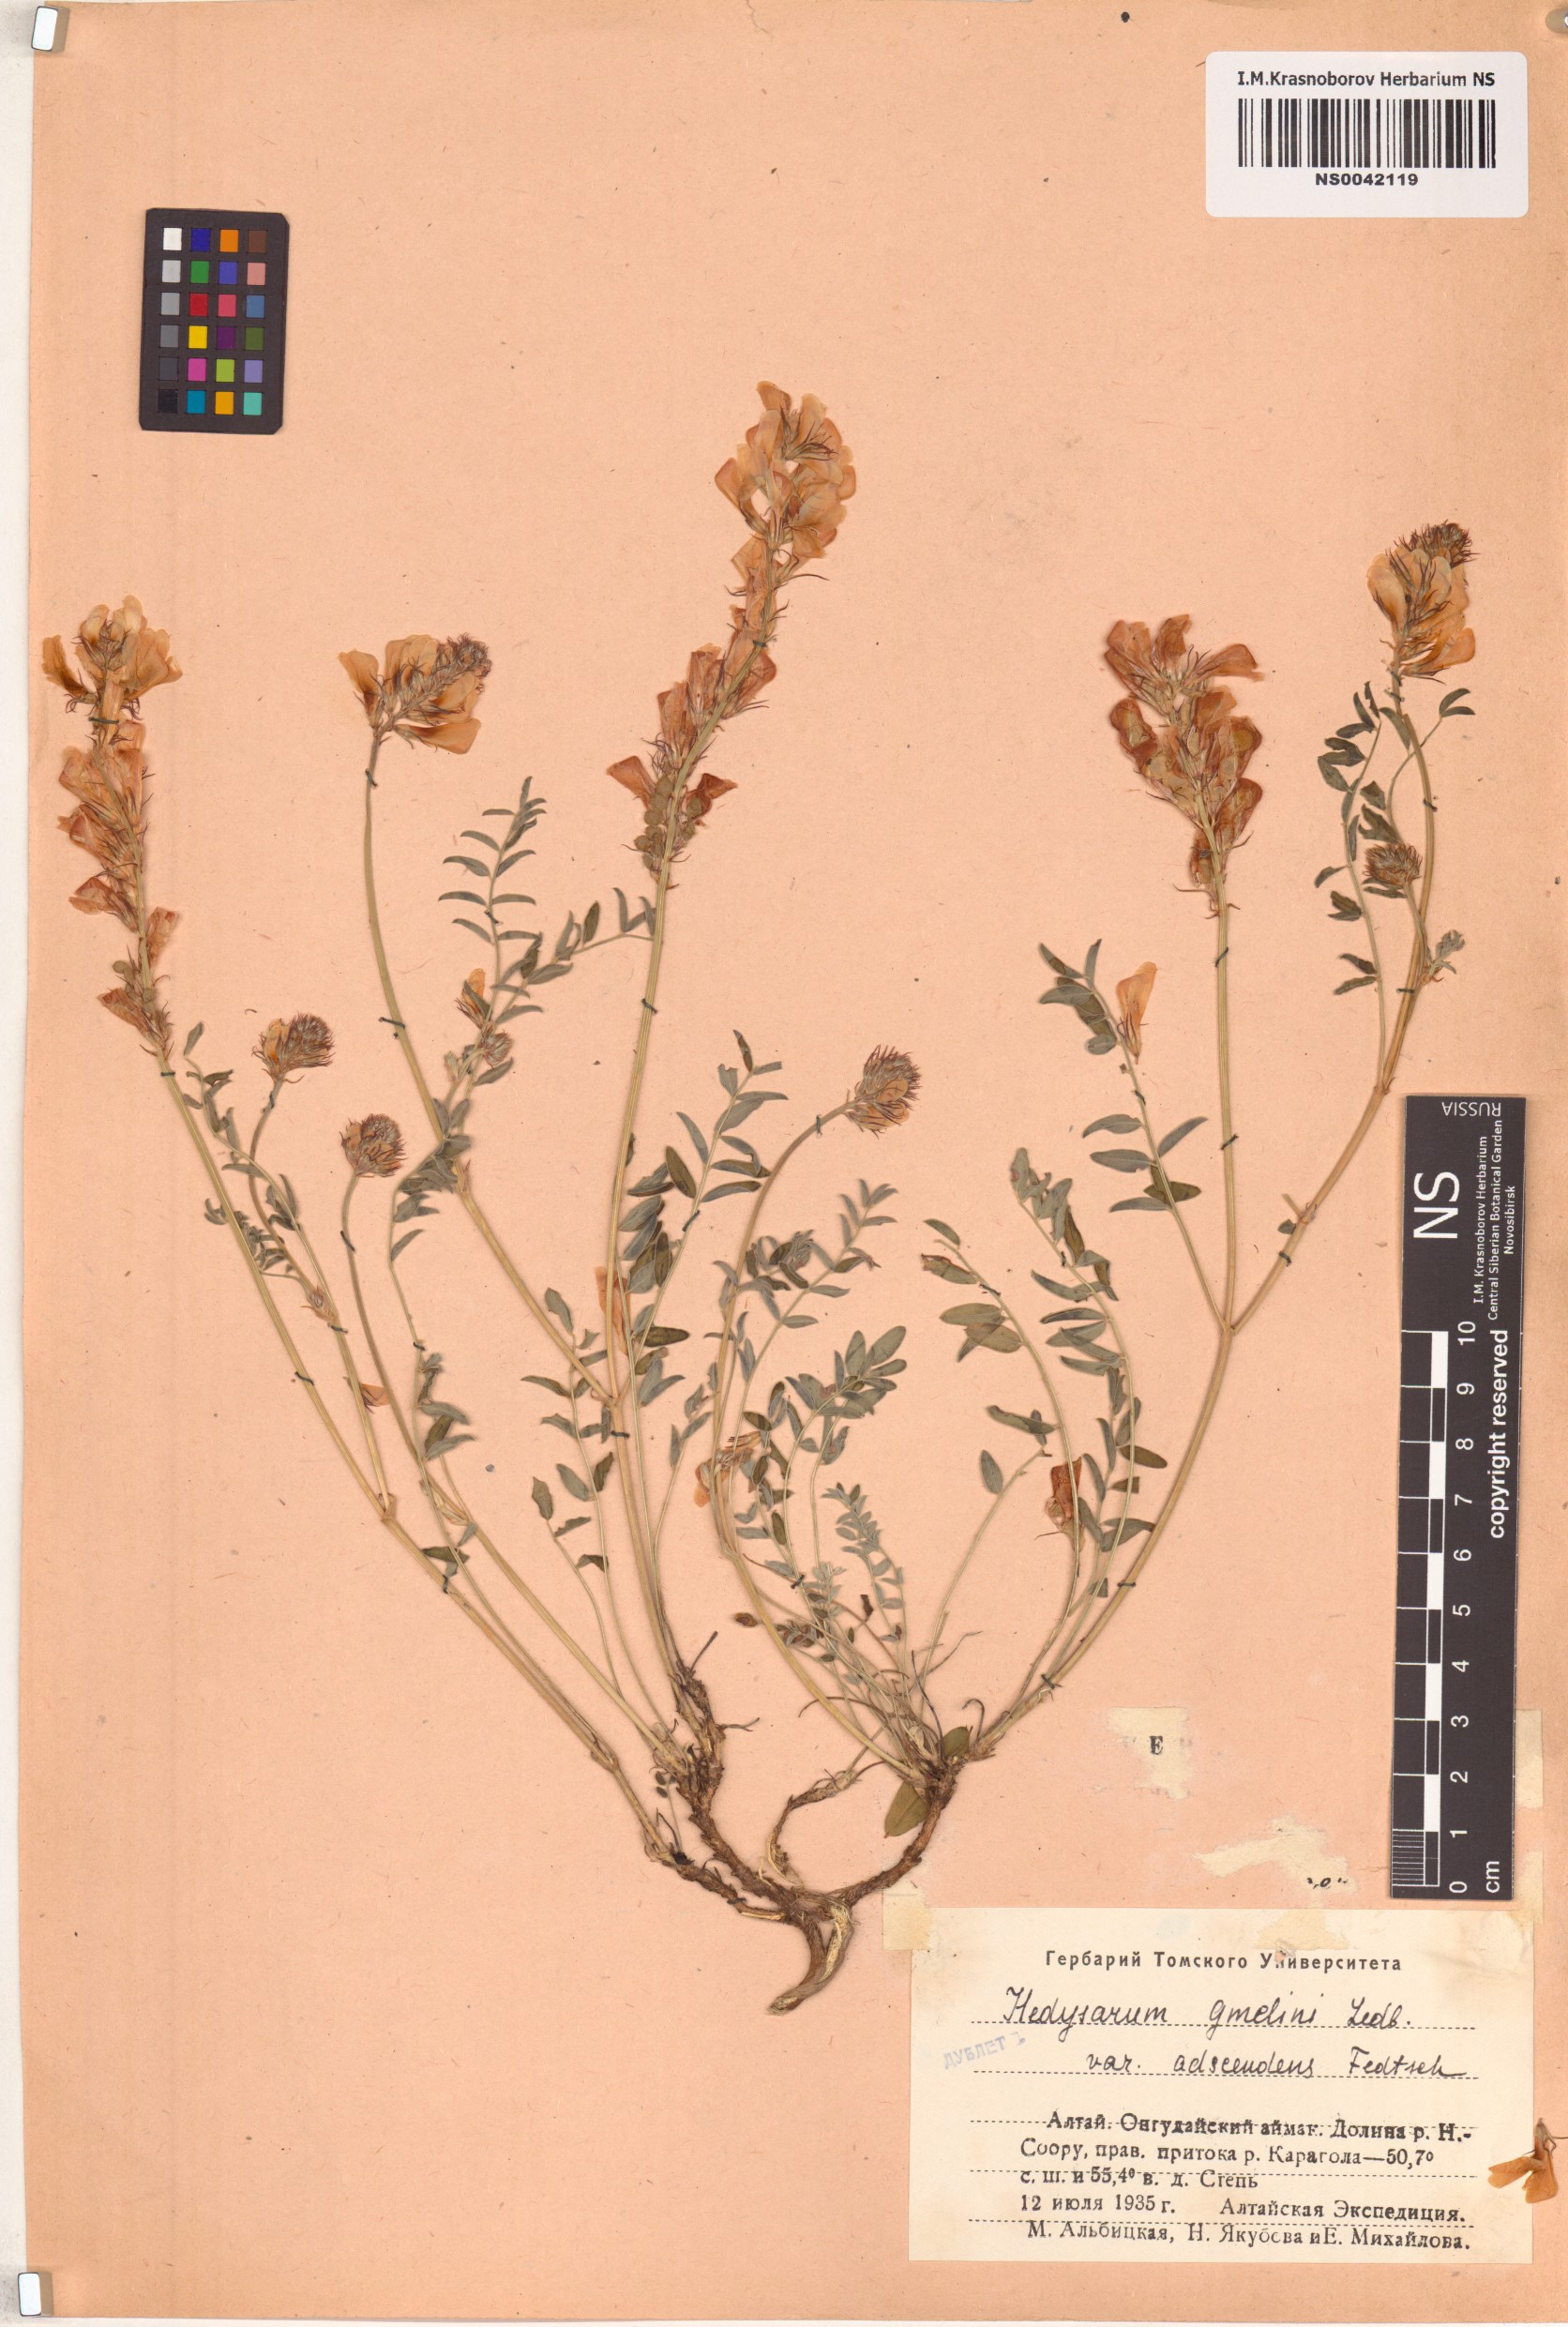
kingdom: Plantae
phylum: Tracheophyta
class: Magnoliopsida
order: Fabales
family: Fabaceae
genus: Hedysarum
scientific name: Hedysarum gmelinii
